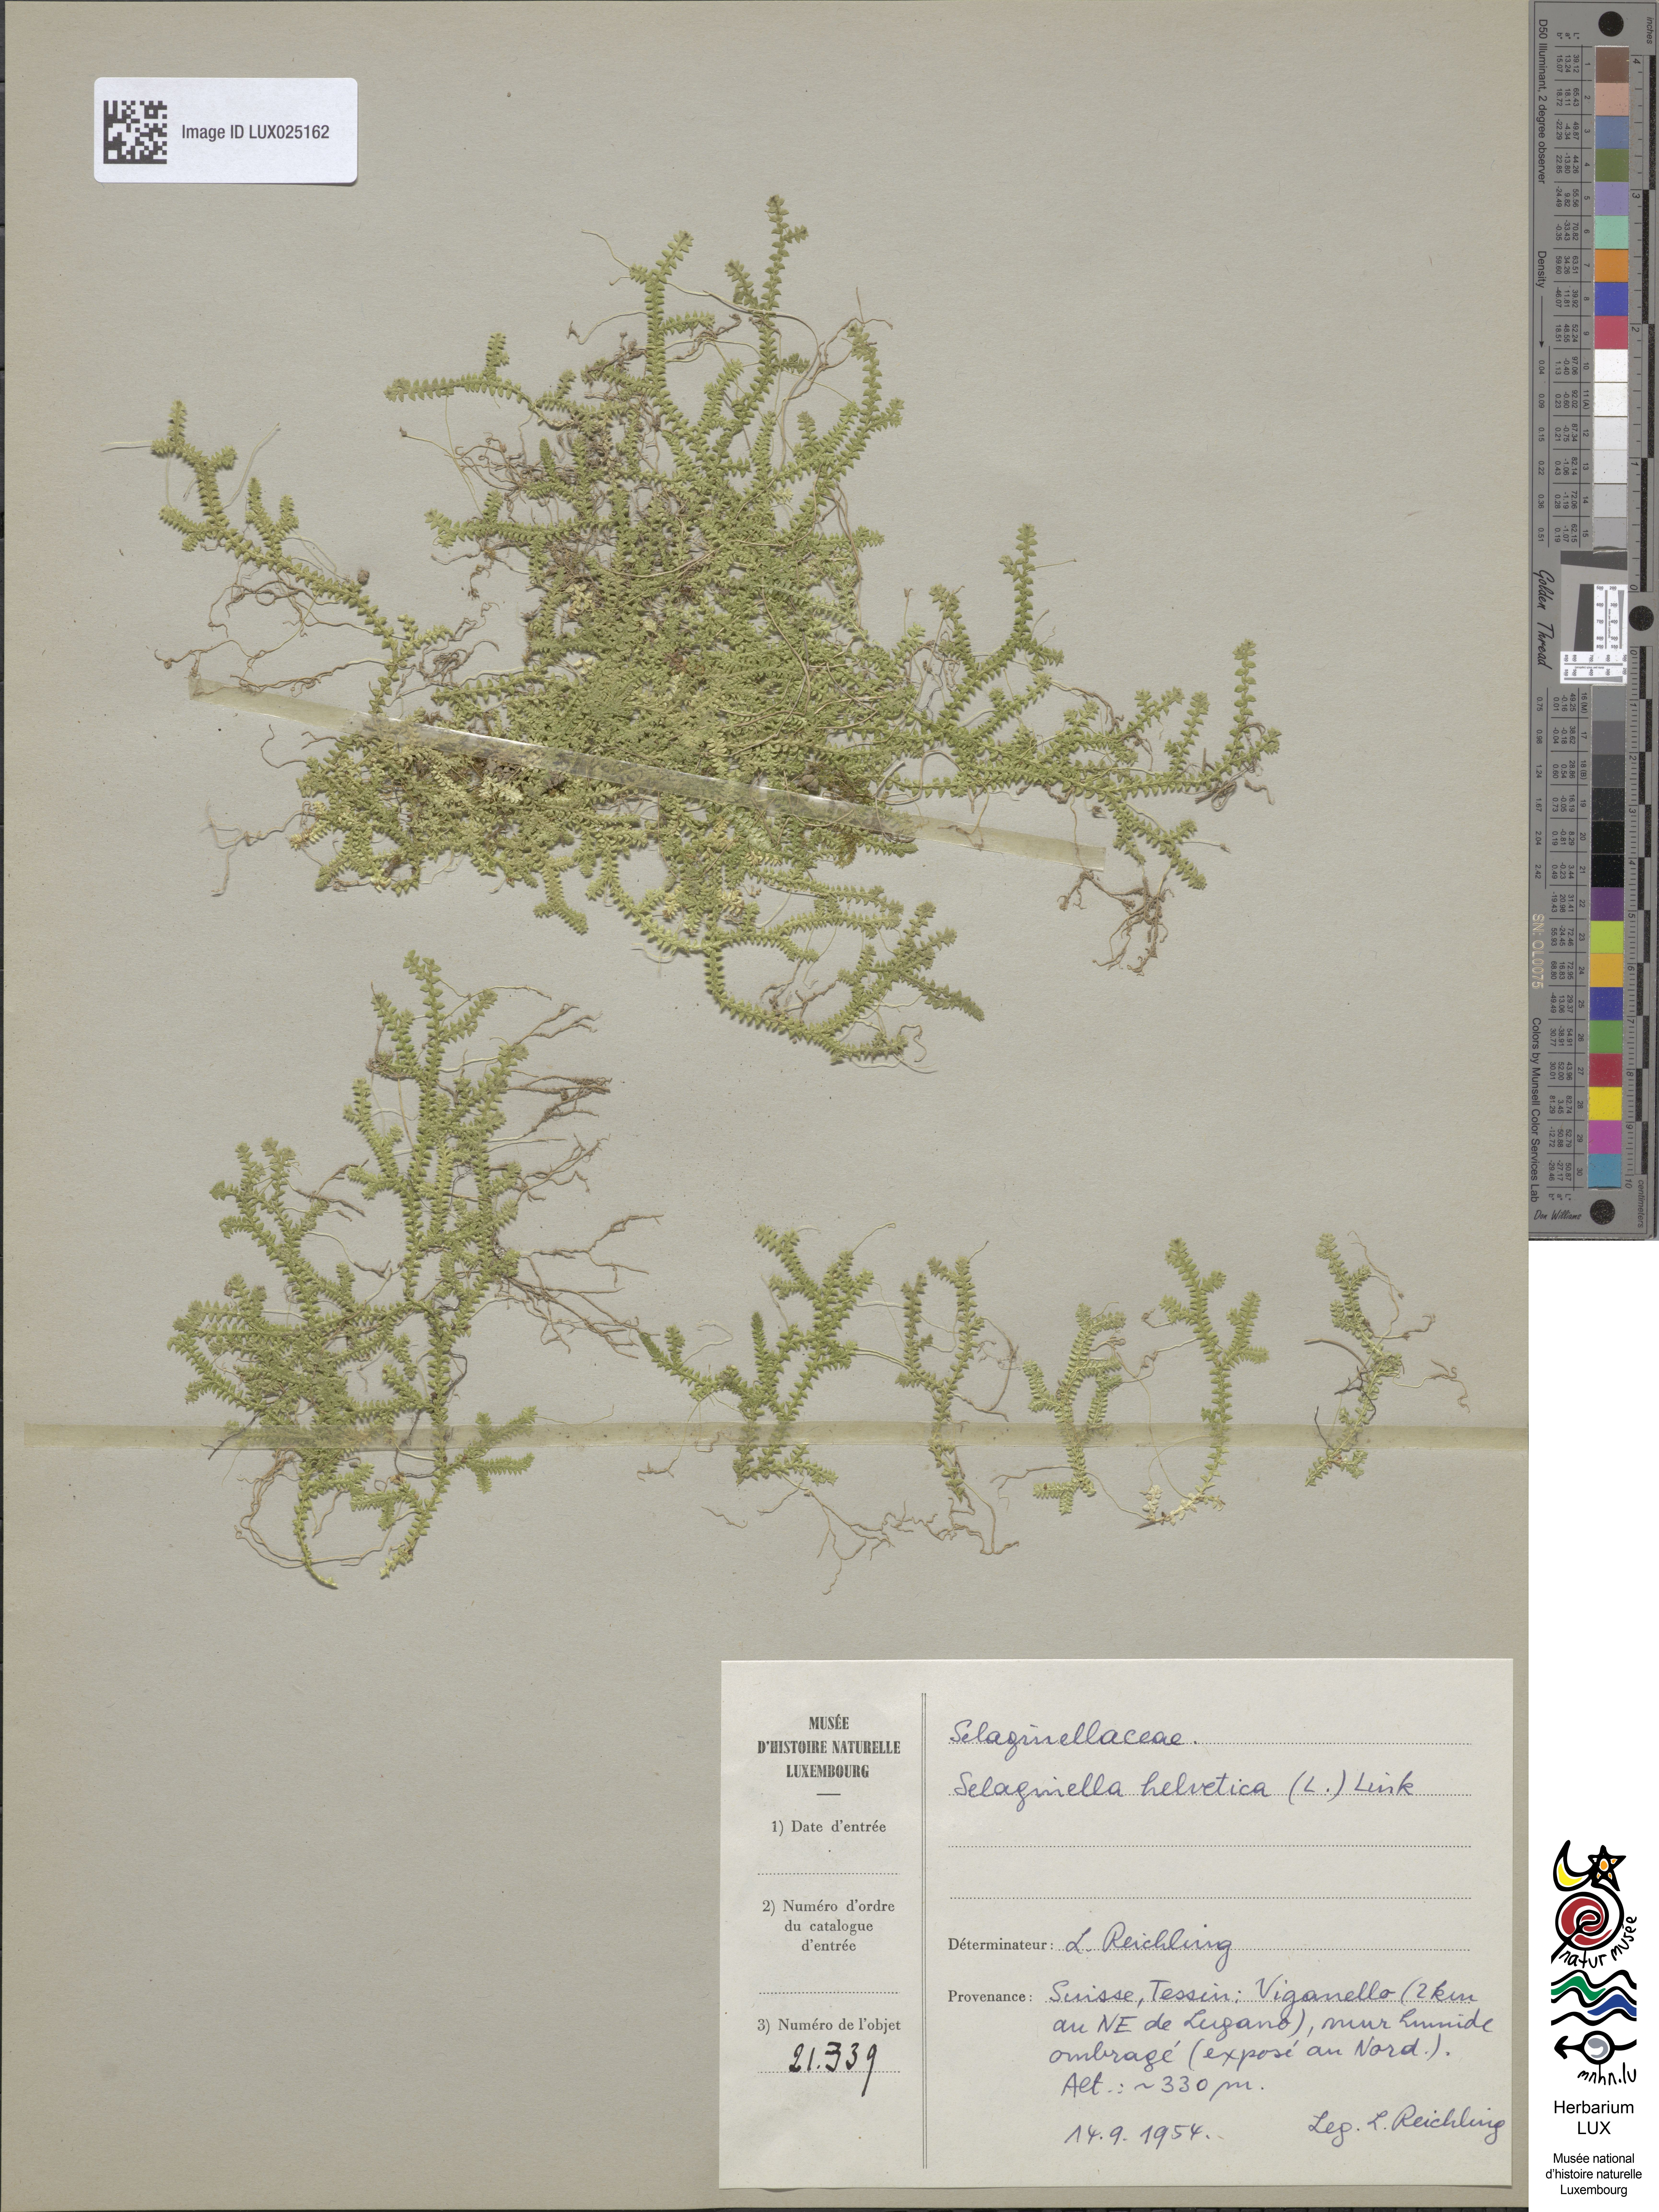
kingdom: Plantae
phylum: Tracheophyta
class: Lycopodiopsida
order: Selaginellales
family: Selaginellaceae
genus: Selaginella
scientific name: Selaginella helvetica
